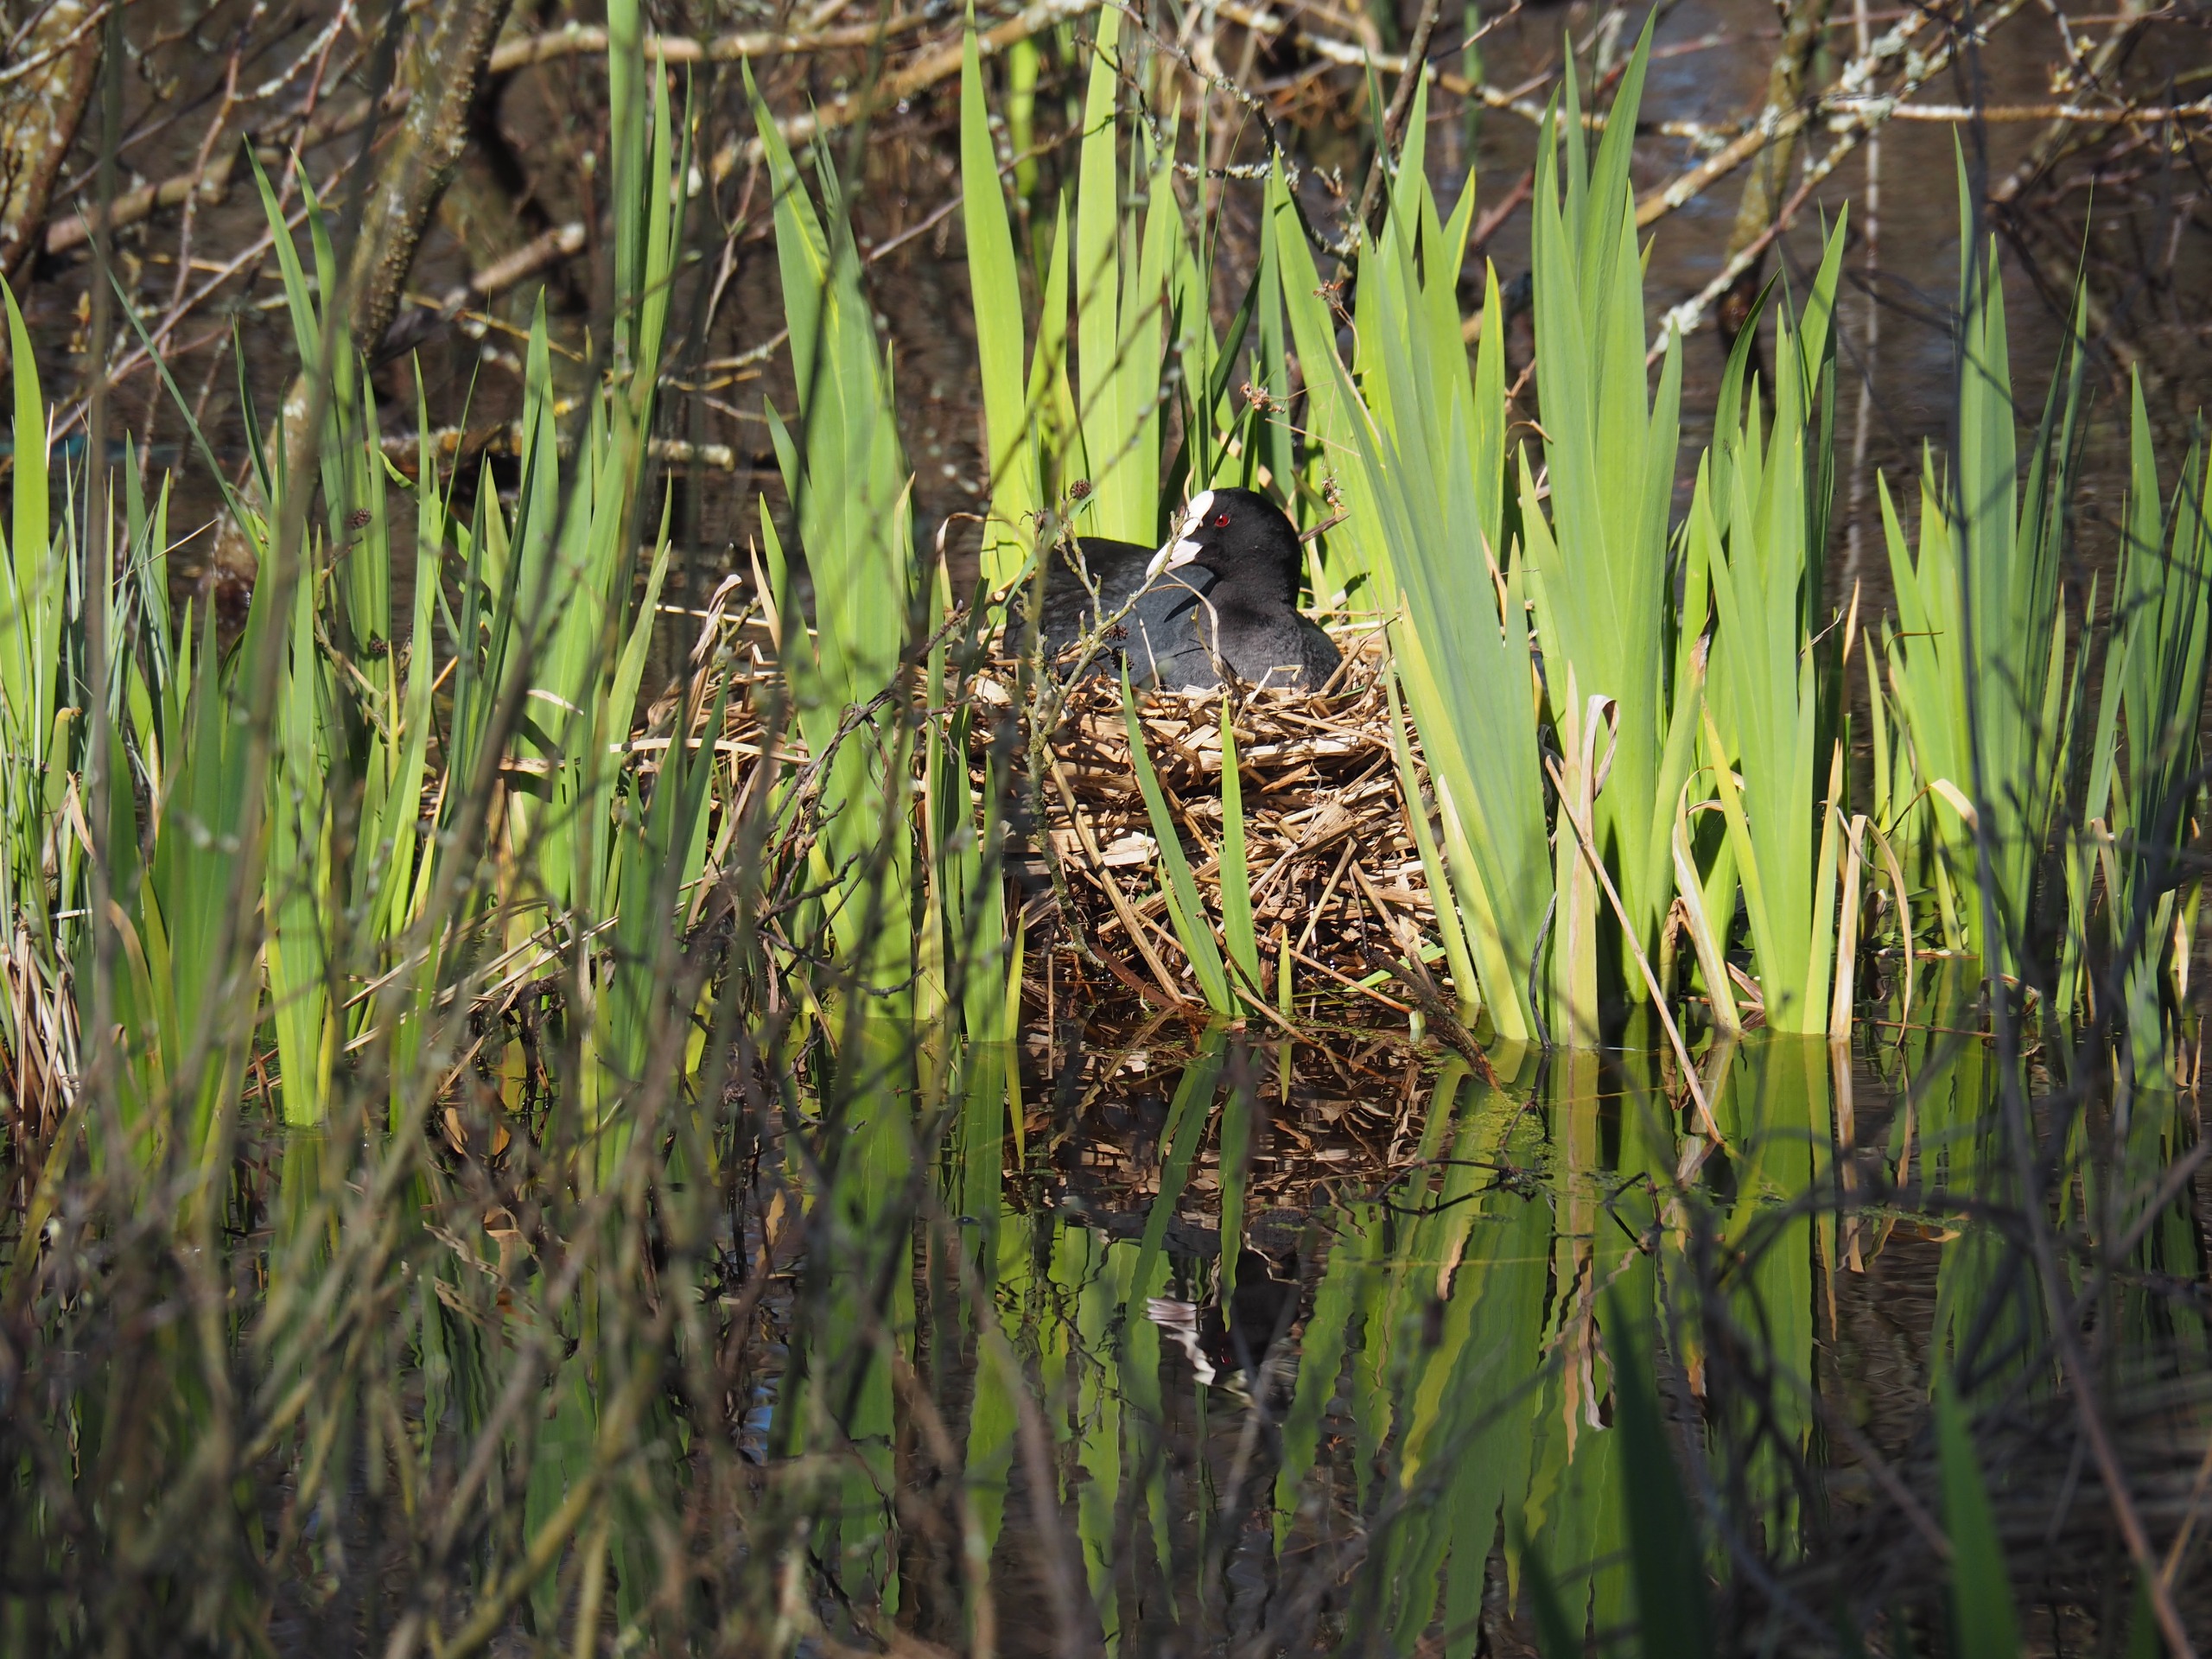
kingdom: Animalia
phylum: Chordata
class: Aves
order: Gruiformes
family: Rallidae
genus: Fulica
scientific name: Fulica atra
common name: Blishøne
